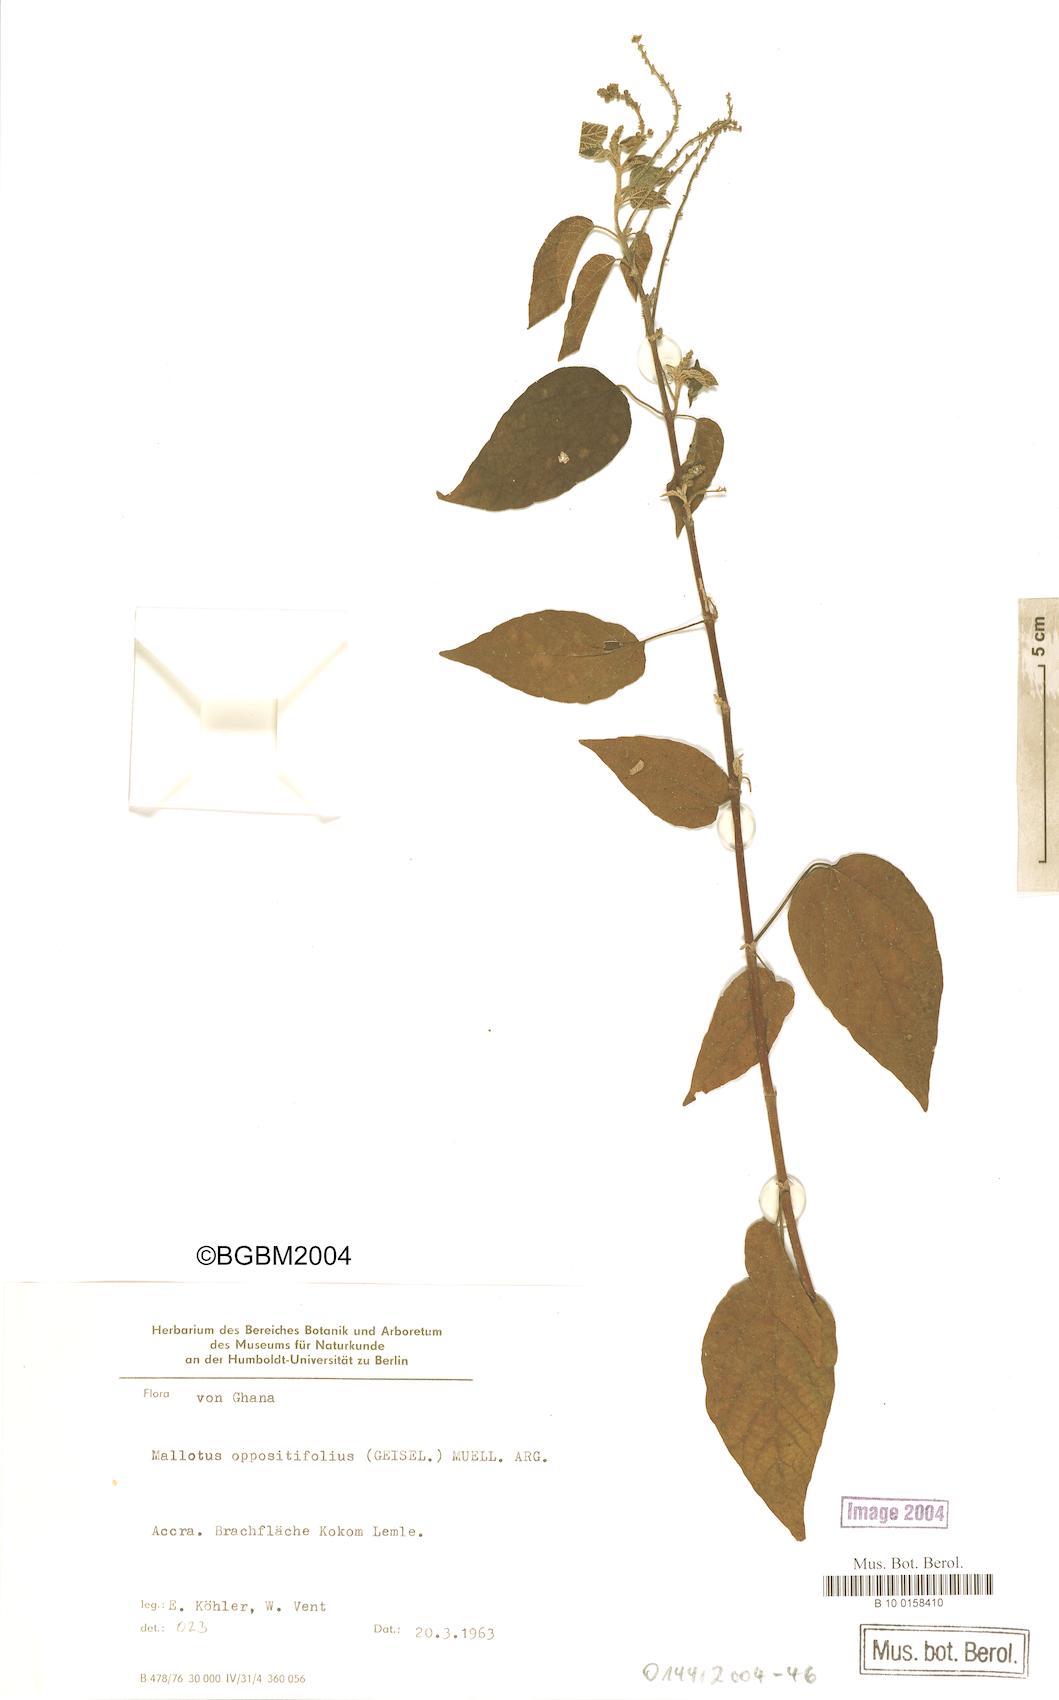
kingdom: Plantae
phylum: Tracheophyta
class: Magnoliopsida
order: Malpighiales
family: Euphorbiaceae
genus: Mallotus
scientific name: Mallotus oppositifolius
